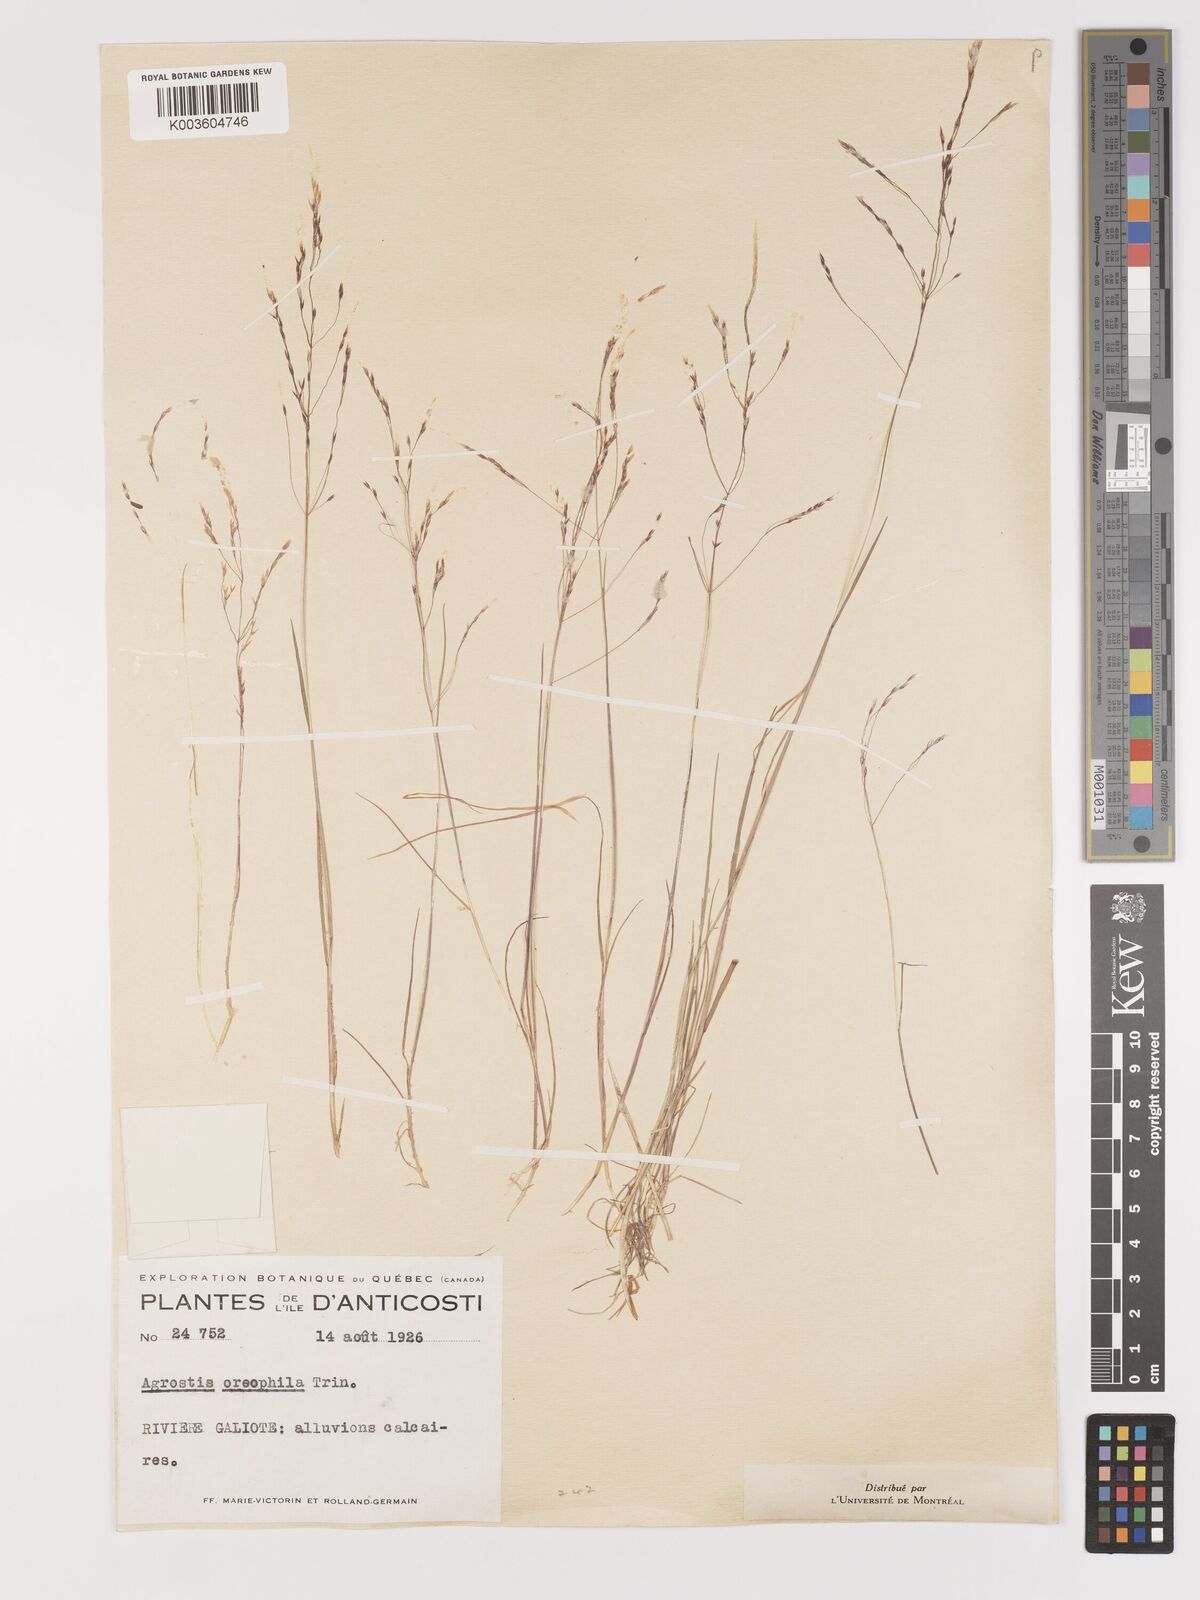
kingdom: Plantae
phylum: Tracheophyta
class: Liliopsida
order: Poales
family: Poaceae
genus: Agrostis
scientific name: Agrostis perennans
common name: Autumn bent
